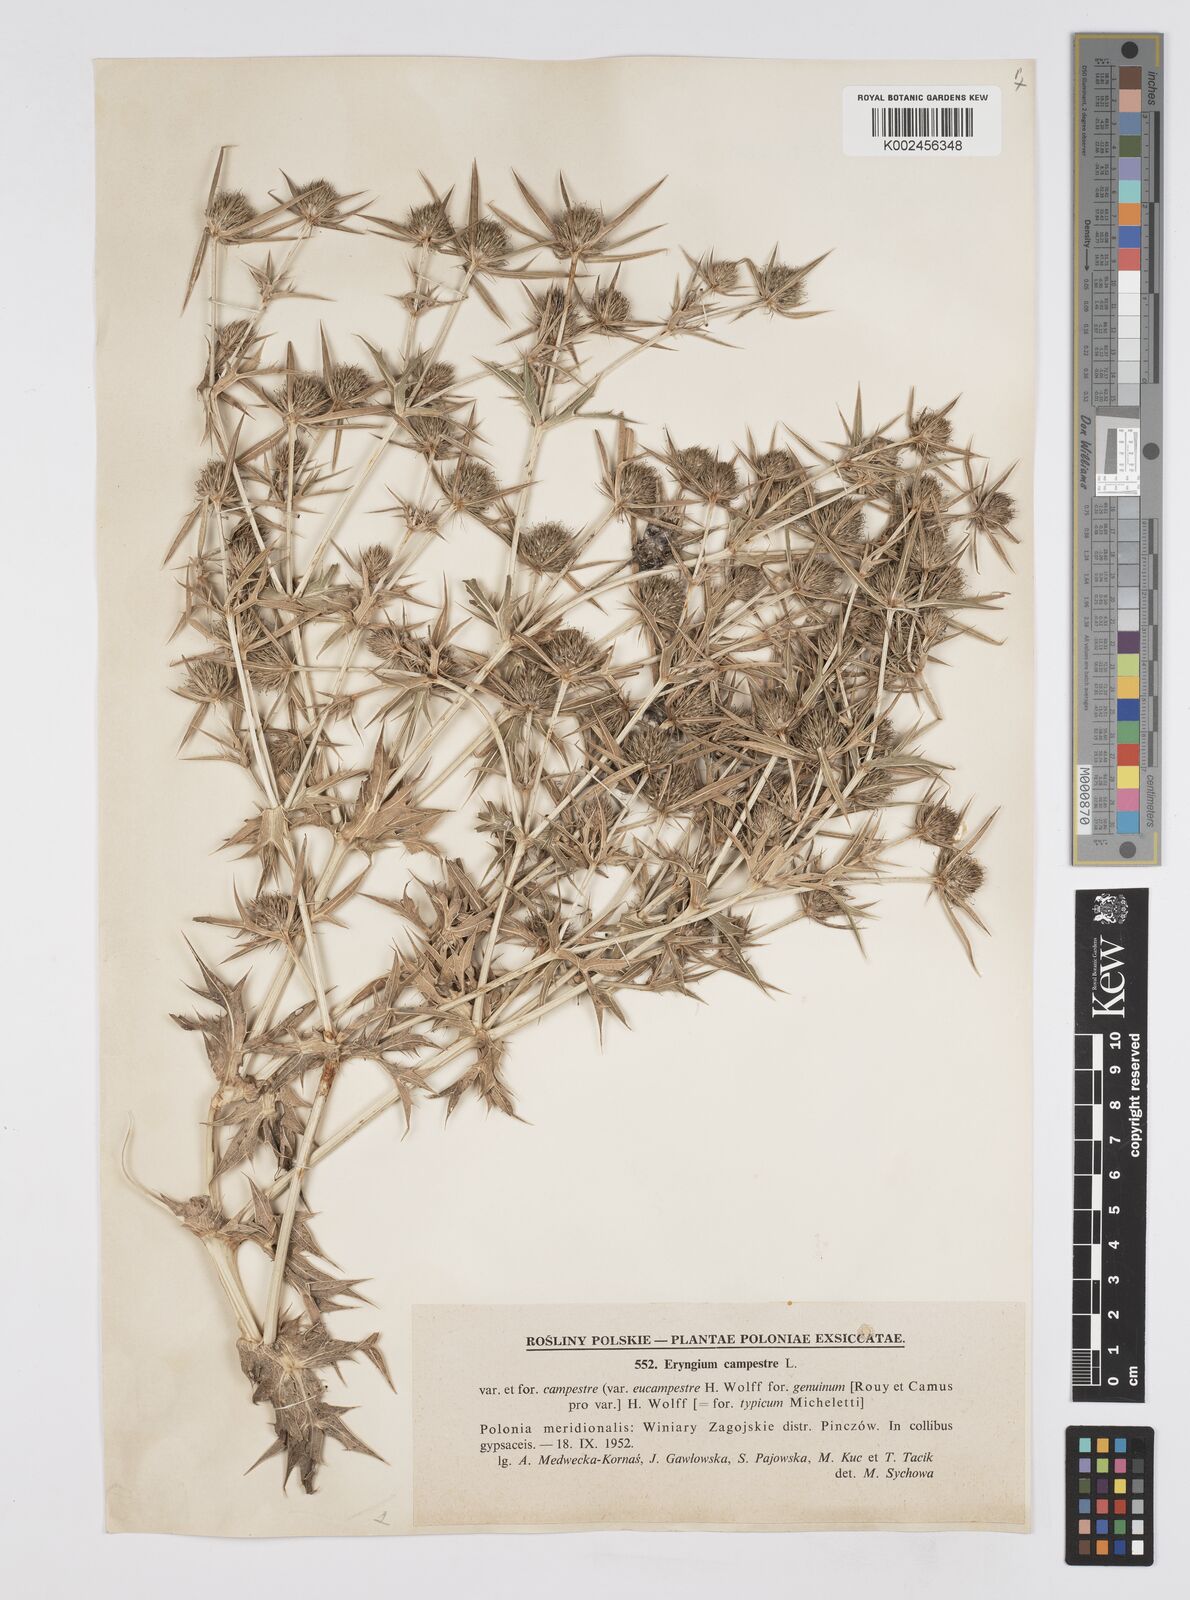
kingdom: Plantae
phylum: Tracheophyta
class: Magnoliopsida
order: Apiales
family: Apiaceae
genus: Eryngium
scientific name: Eryngium campestre
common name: Field eryngo
